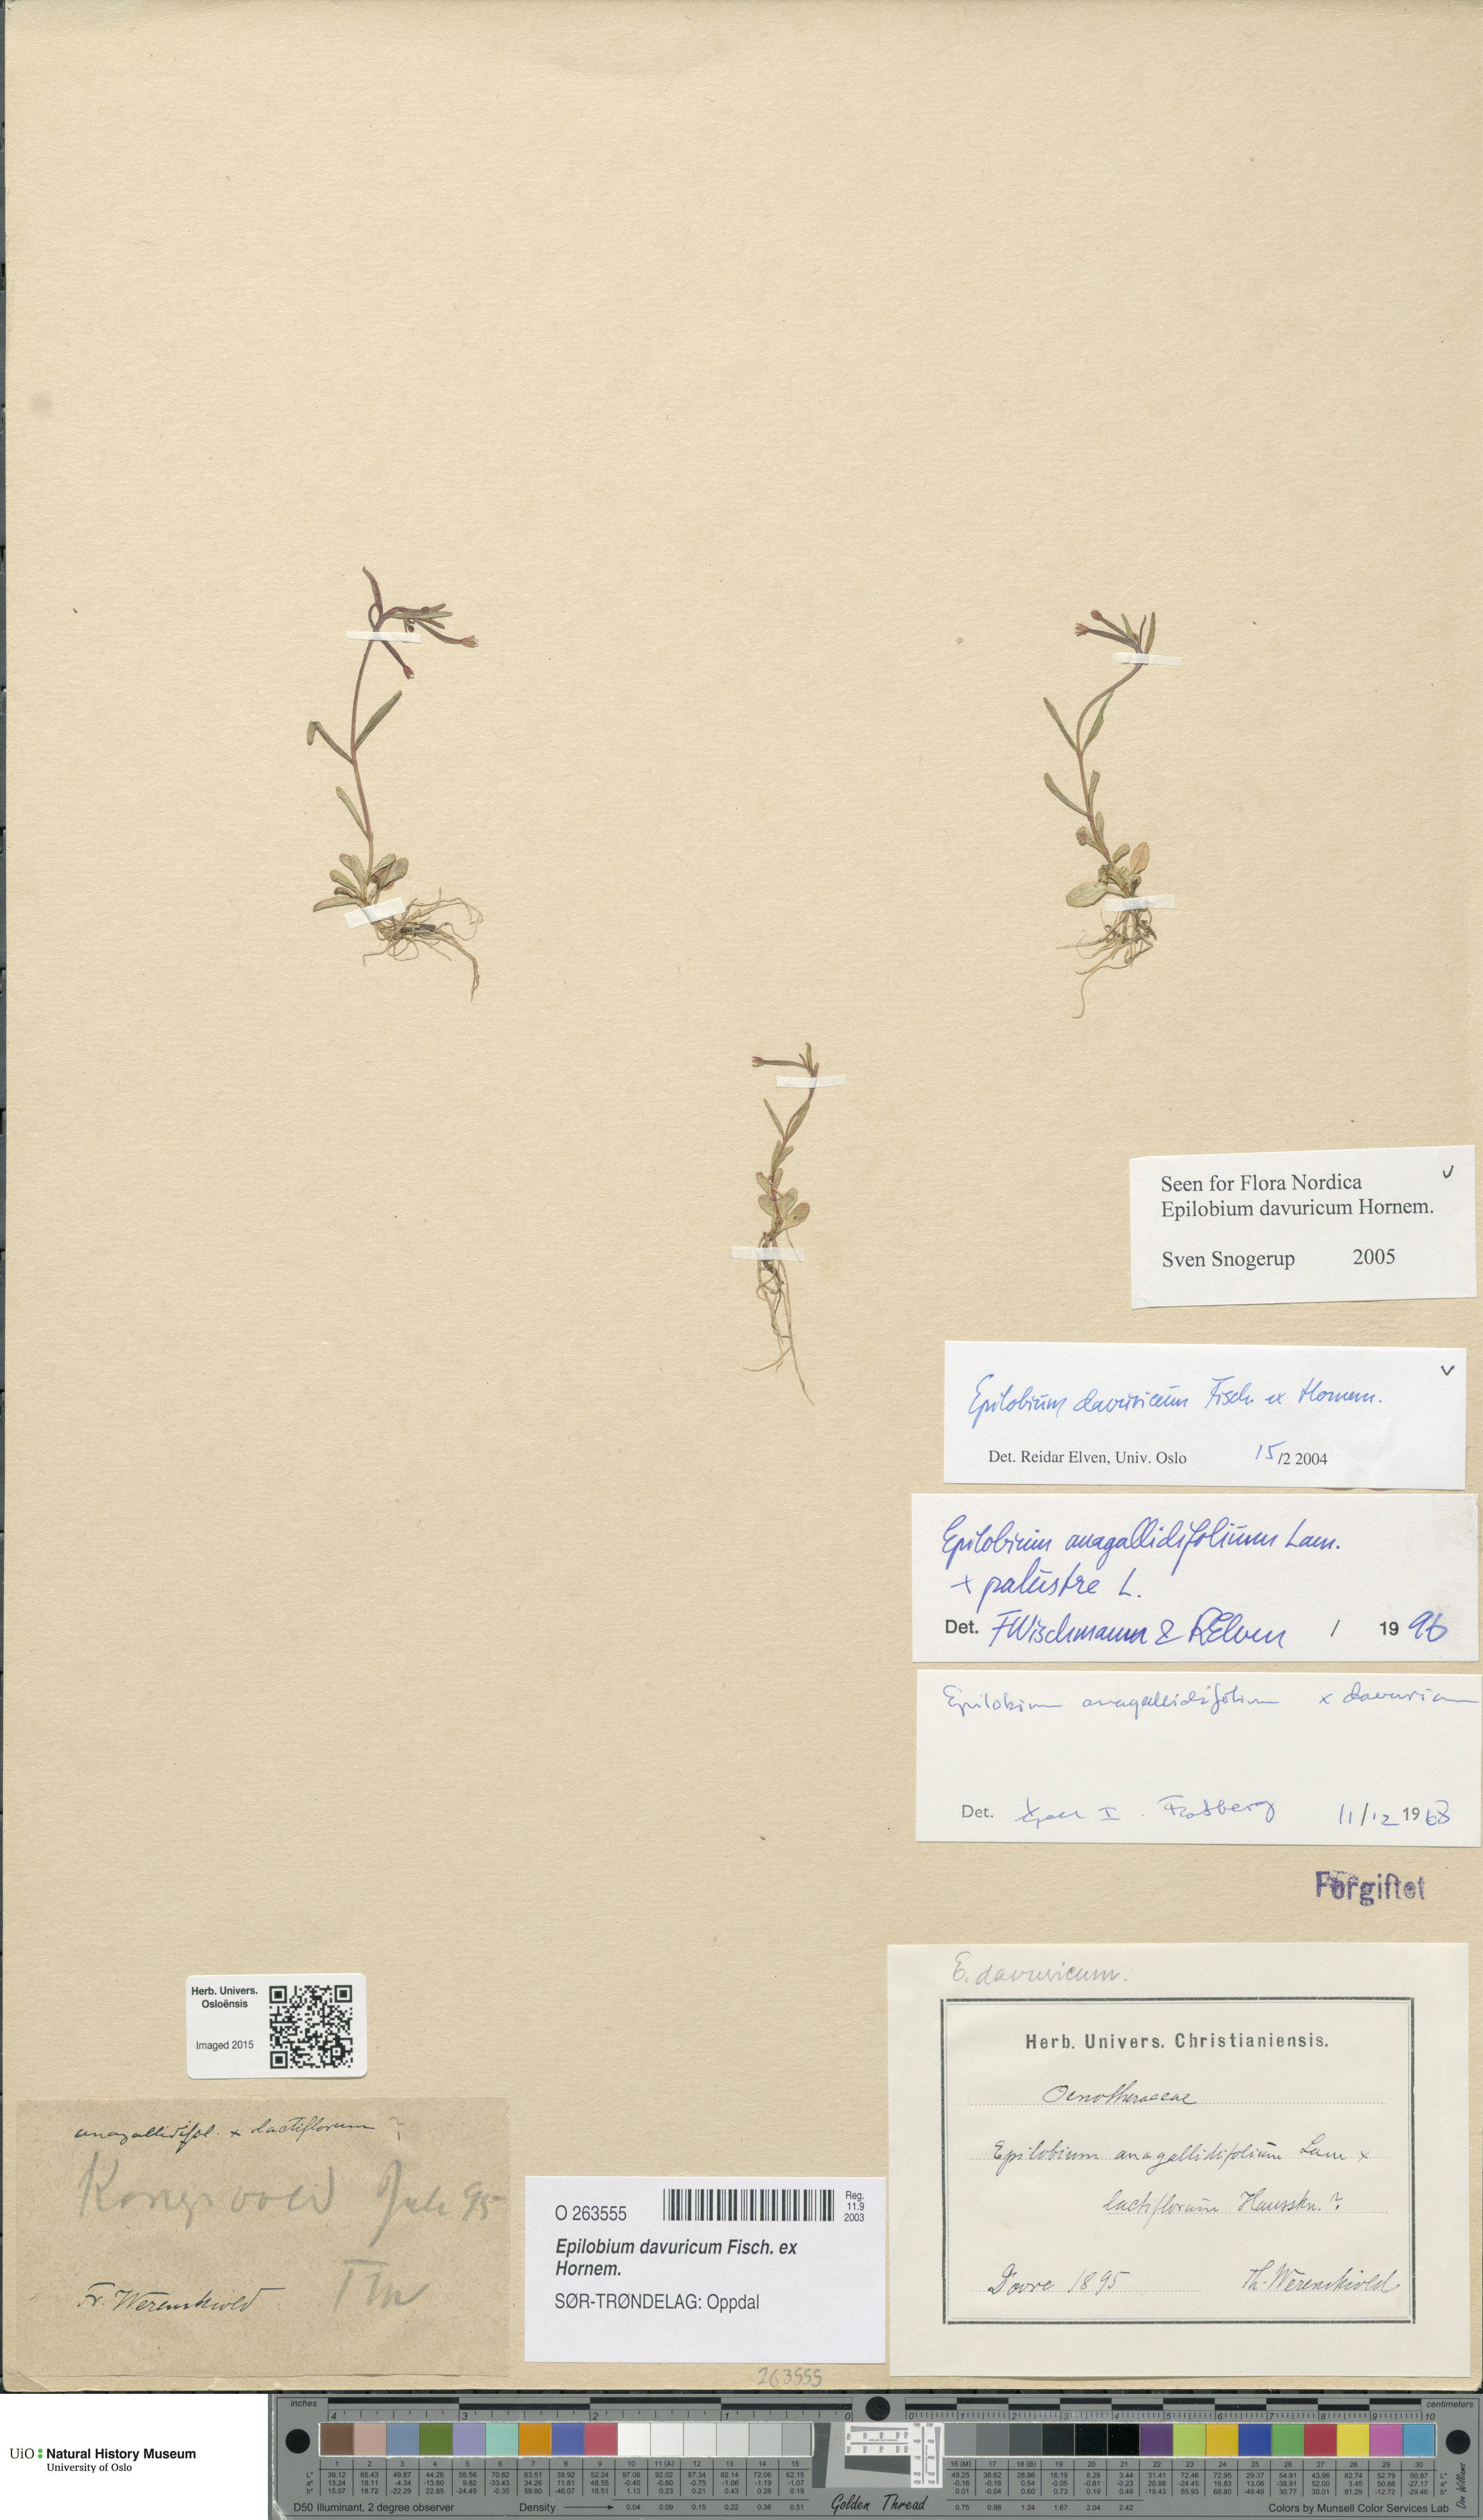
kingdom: Plantae
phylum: Tracheophyta
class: Magnoliopsida
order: Myrtales
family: Onagraceae
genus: Epilobium
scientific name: Epilobium davuricum
